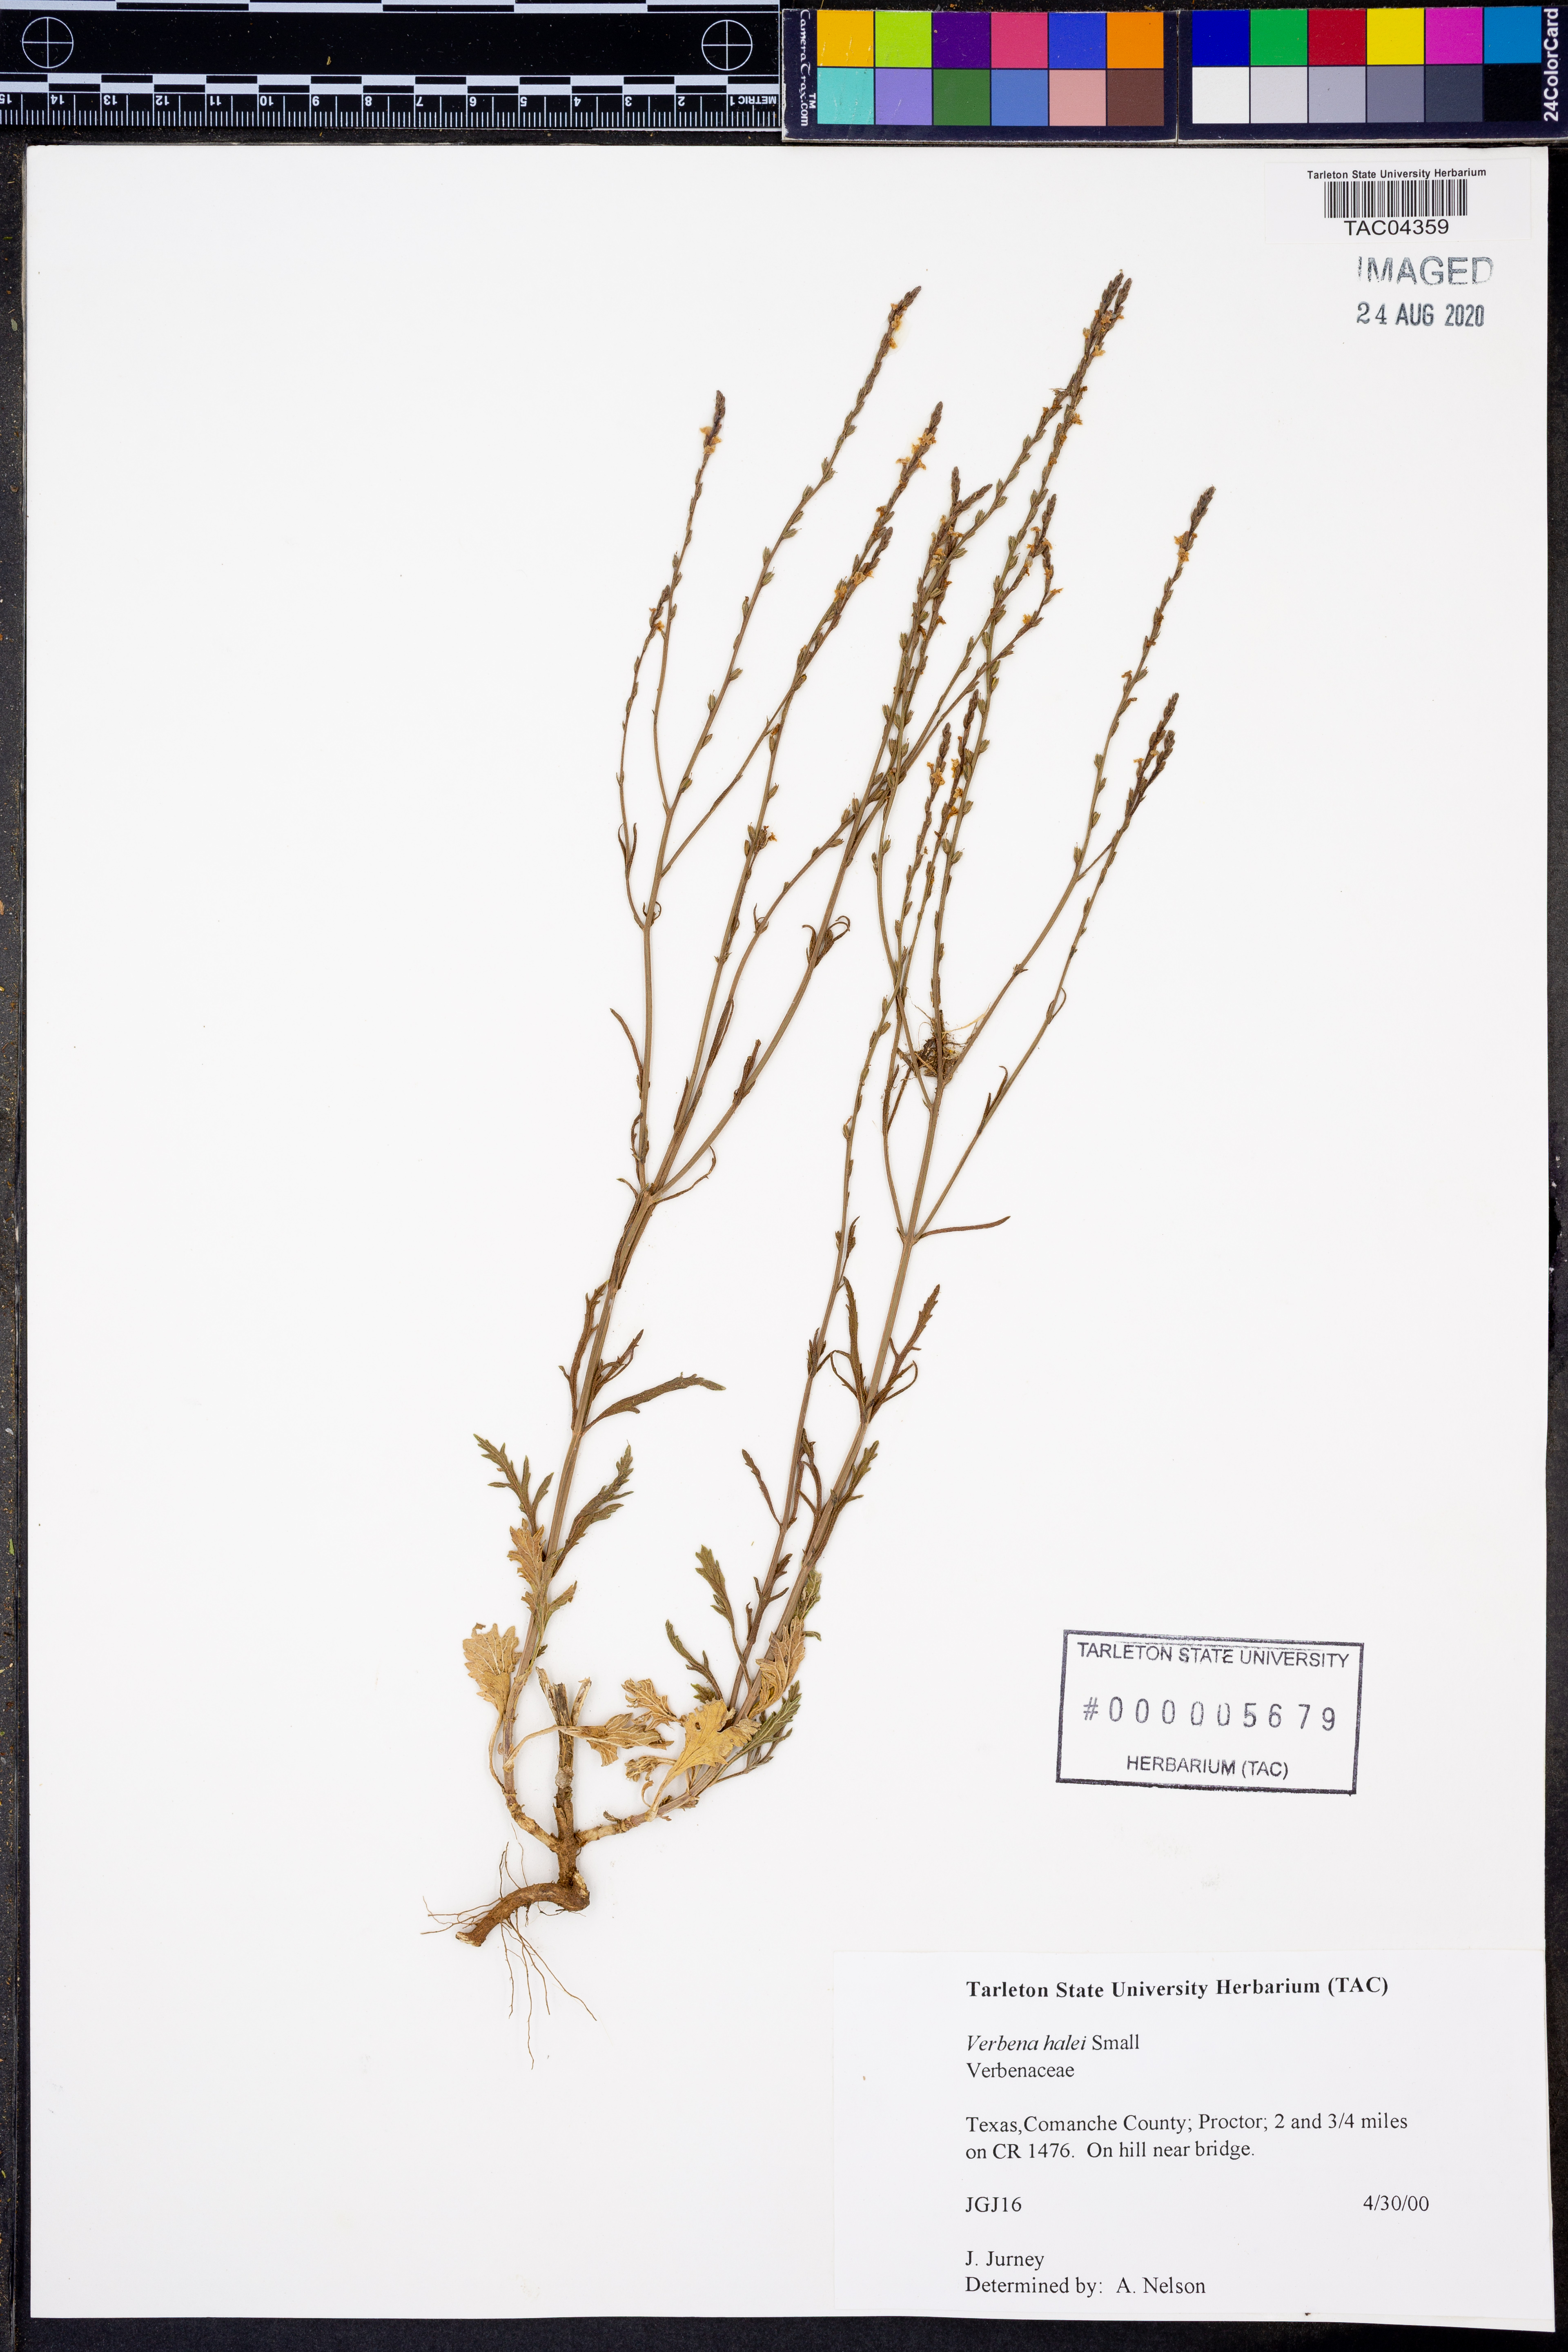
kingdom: Plantae
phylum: Tracheophyta
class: Magnoliopsida
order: Lamiales
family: Verbenaceae
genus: Verbena
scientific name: Verbena halei
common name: Texas vervain
